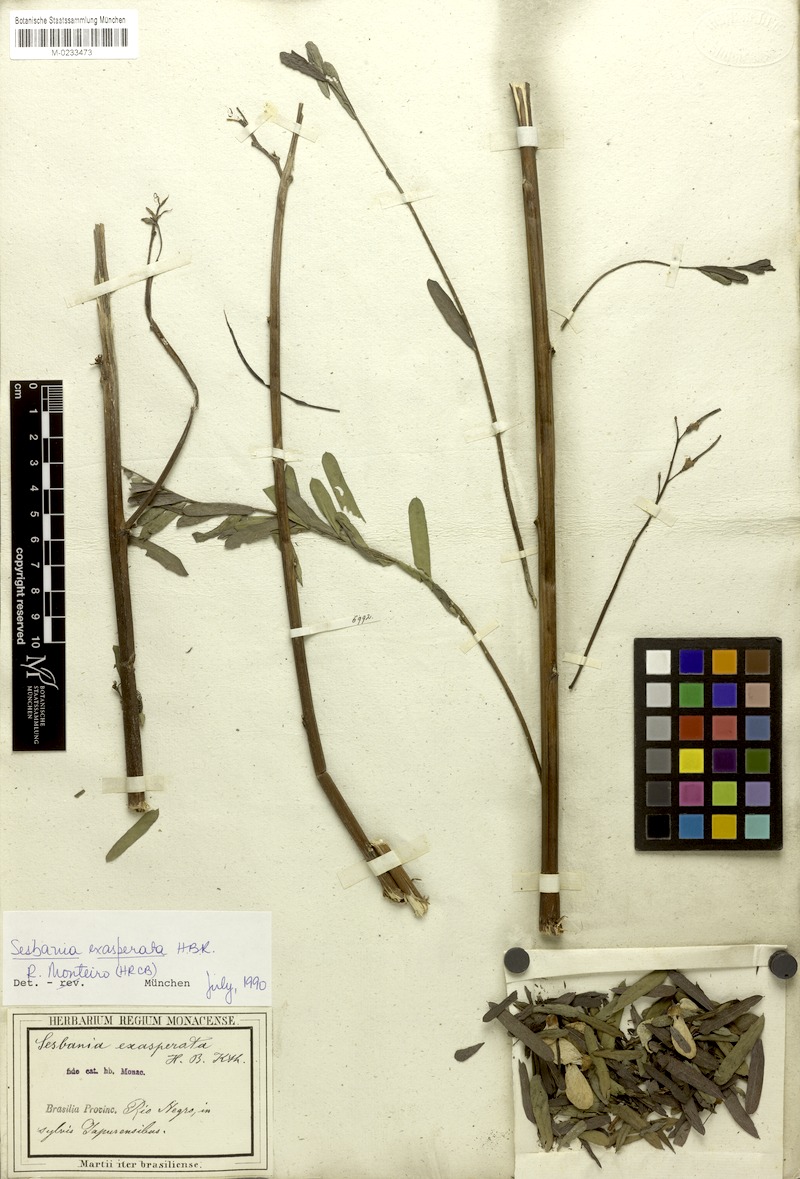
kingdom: Plantae
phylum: Tracheophyta
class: Magnoliopsida
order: Fabales
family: Fabaceae
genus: Sesbania
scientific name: Sesbania exasperata
